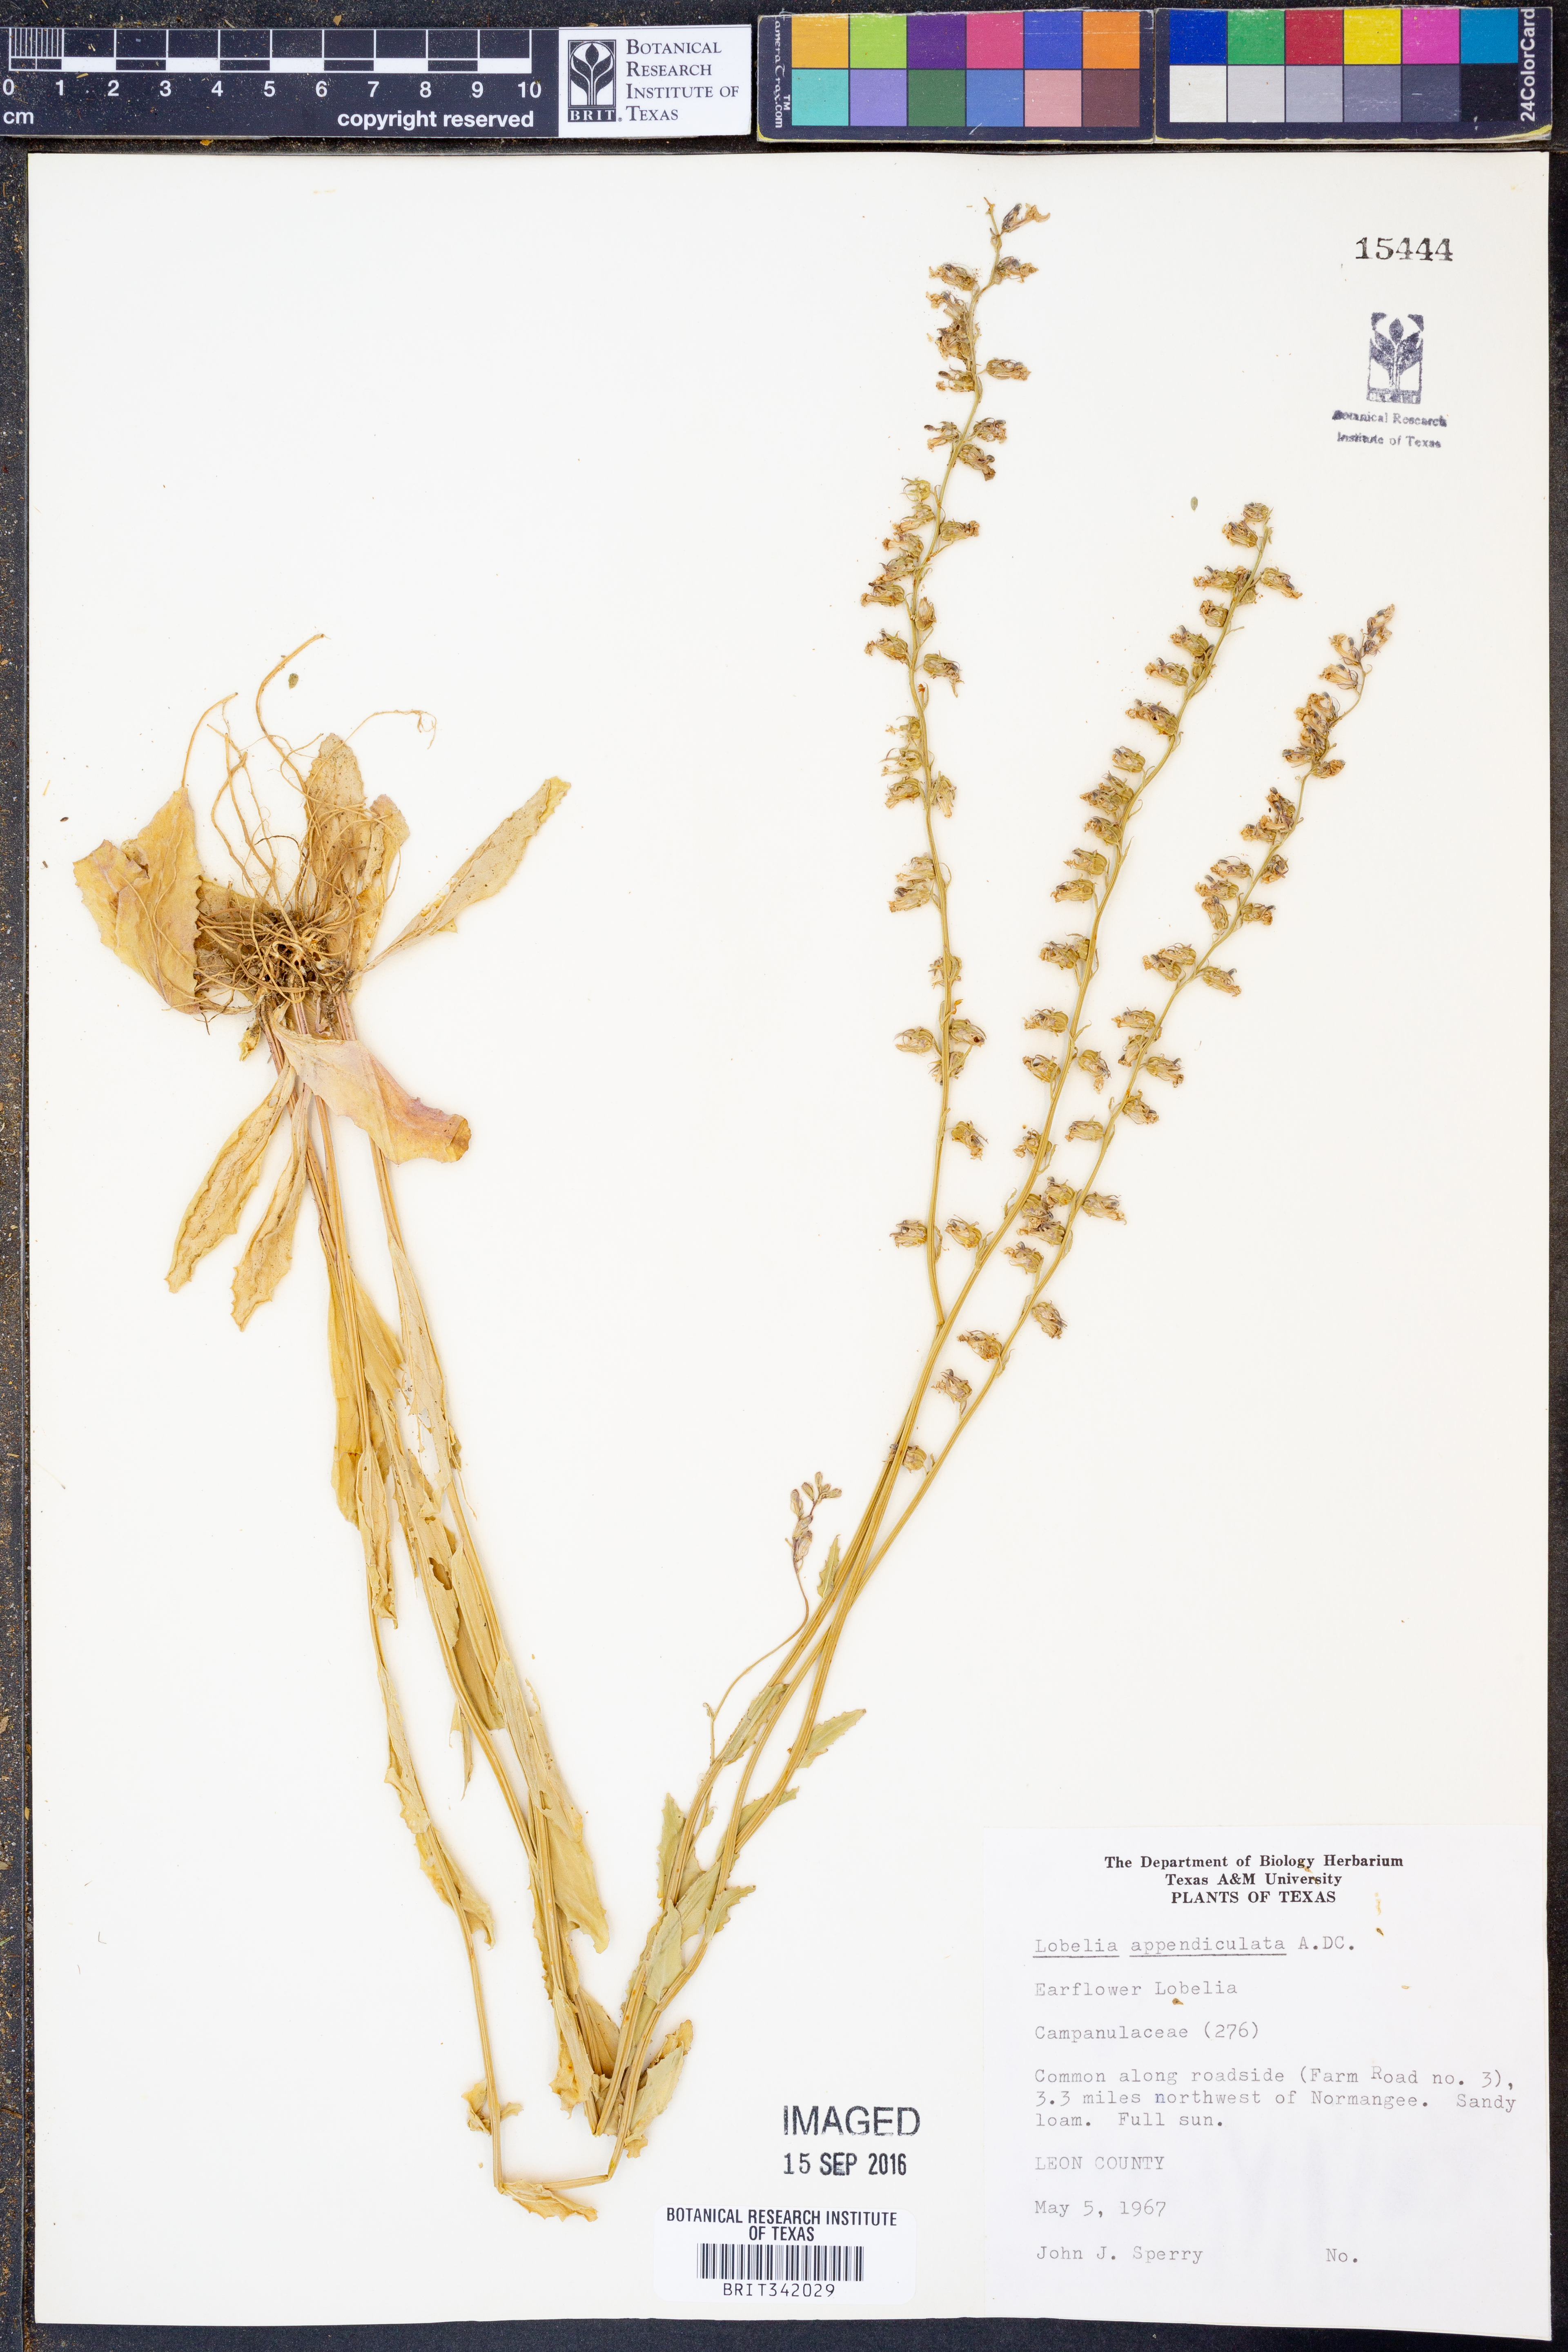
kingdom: Plantae
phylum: Tracheophyta
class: Magnoliopsida
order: Asterales
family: Campanulaceae
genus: Lobelia
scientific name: Lobelia appendiculata
